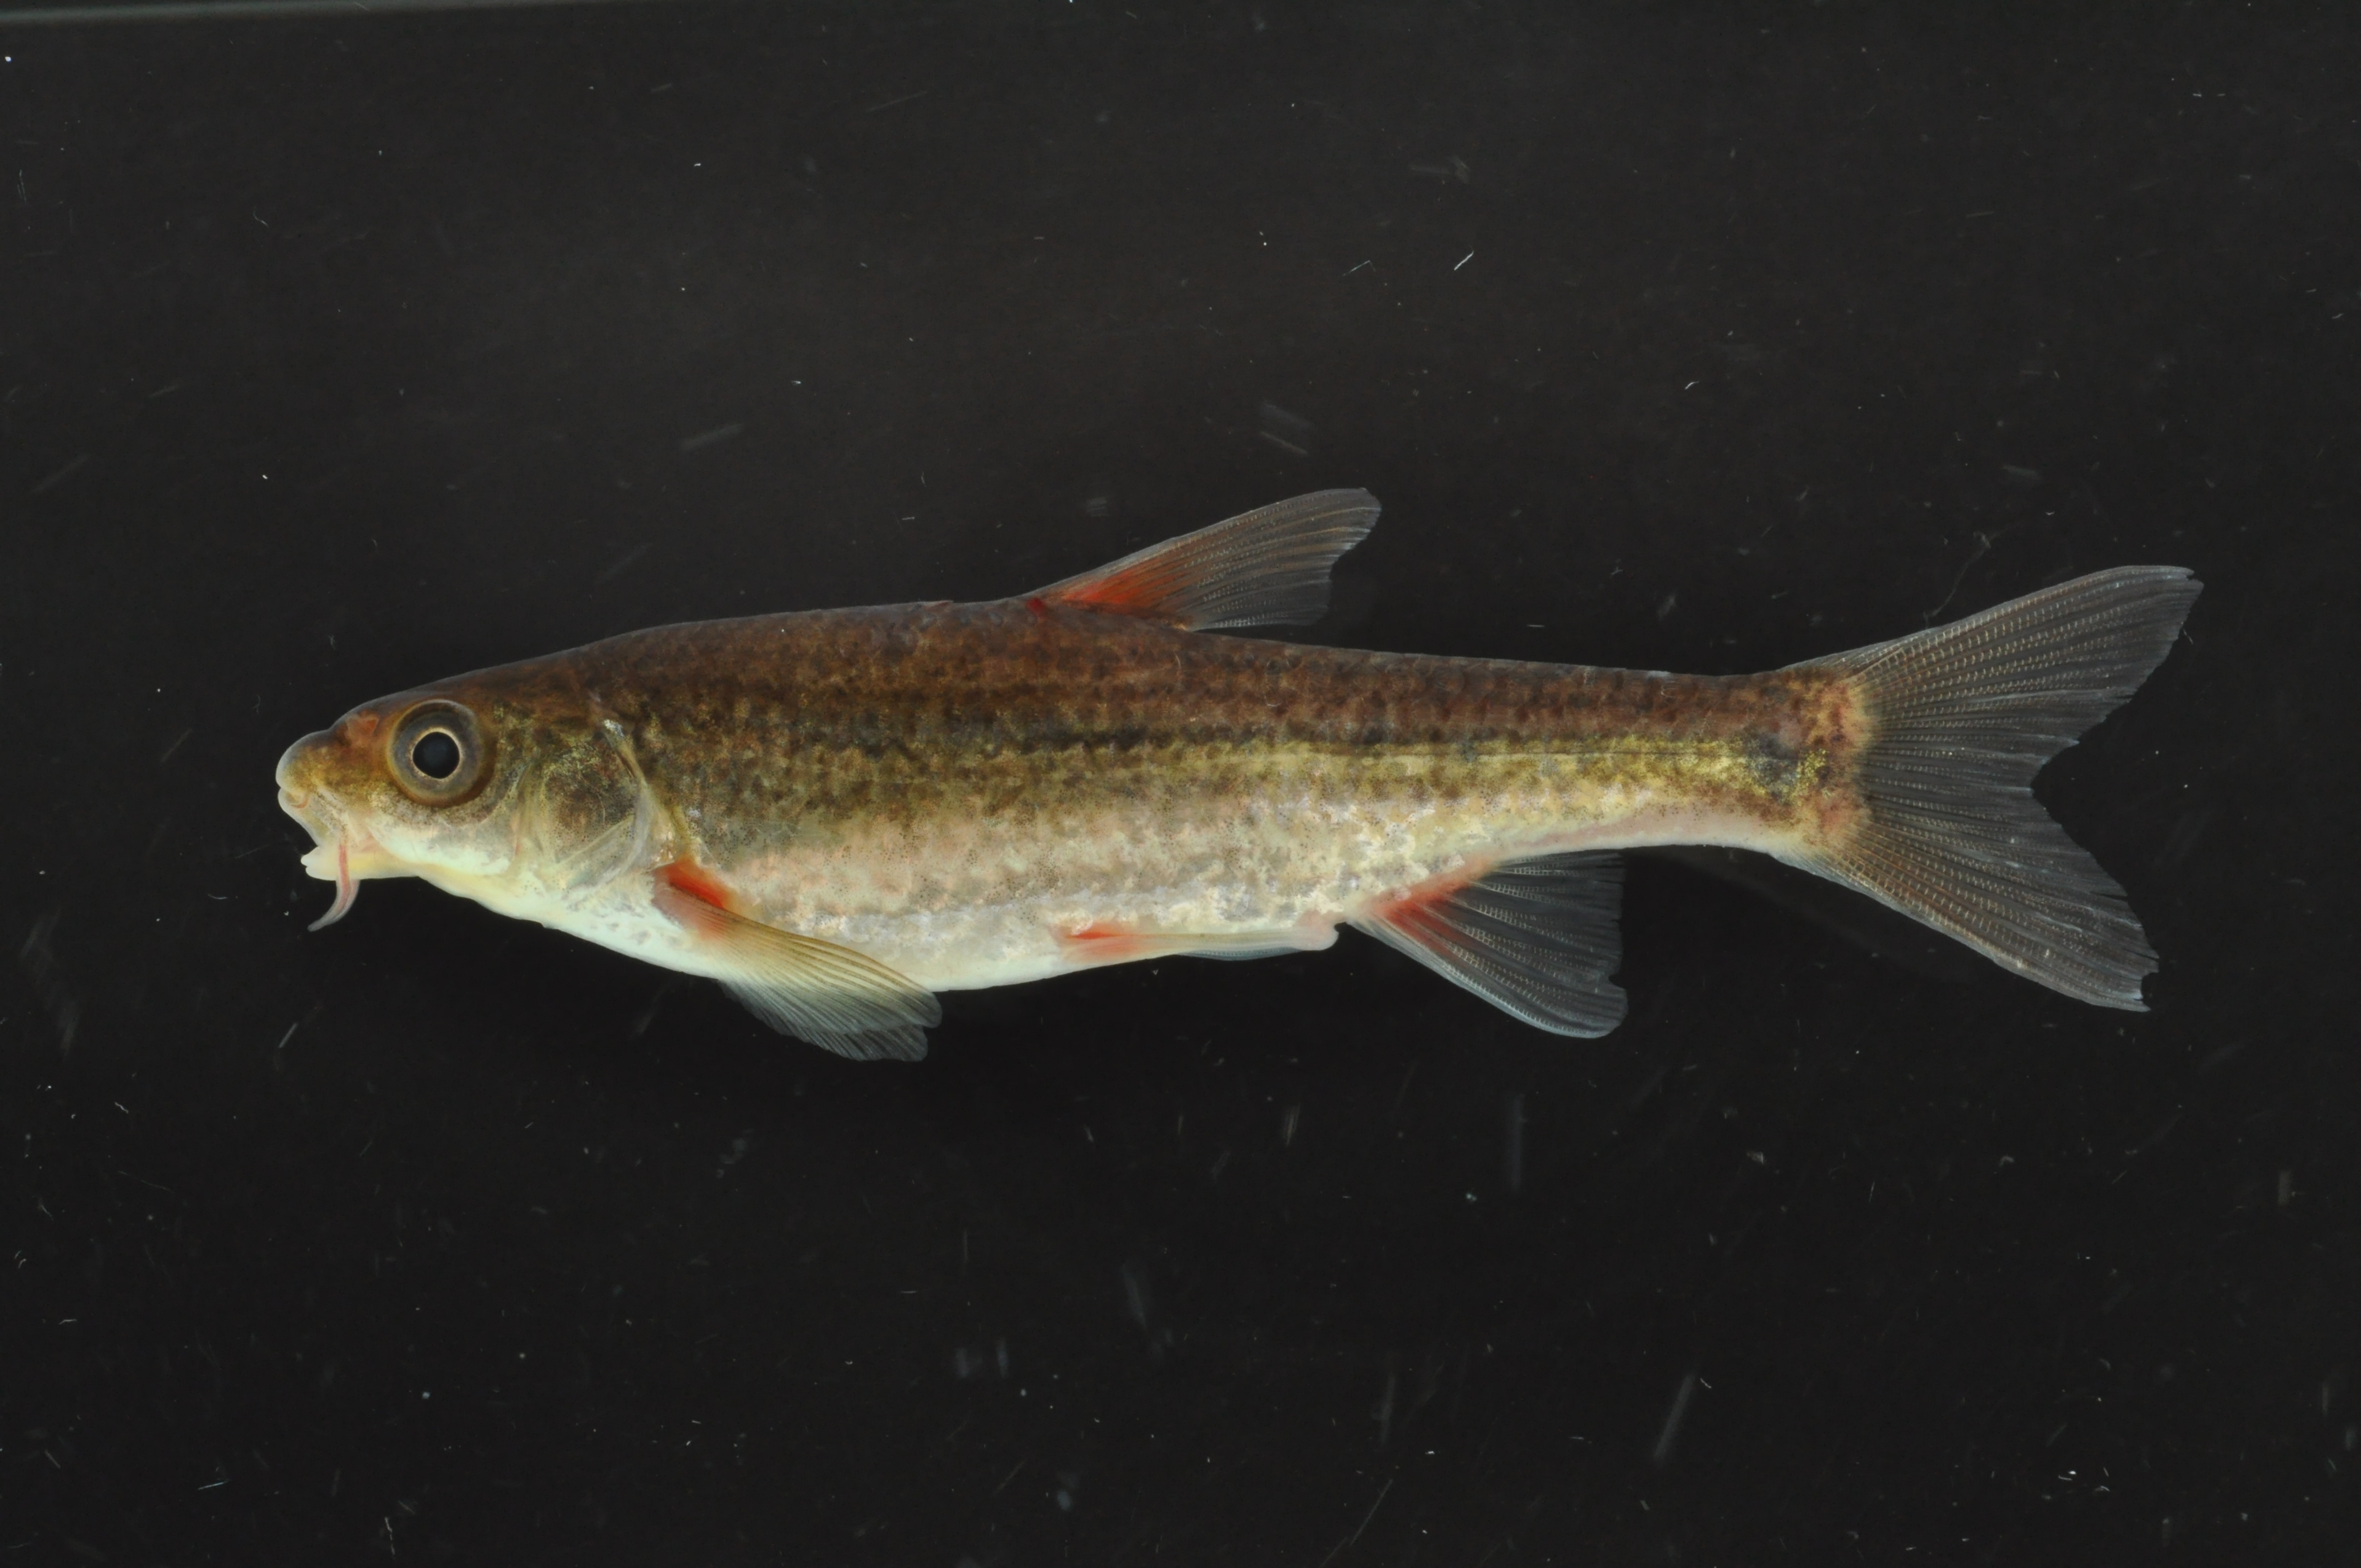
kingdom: Animalia
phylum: Chordata
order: Cypriniformes
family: Cyprinidae
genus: Pseudobarbus
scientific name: Pseudobarbus burgi
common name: Berg river redfin
